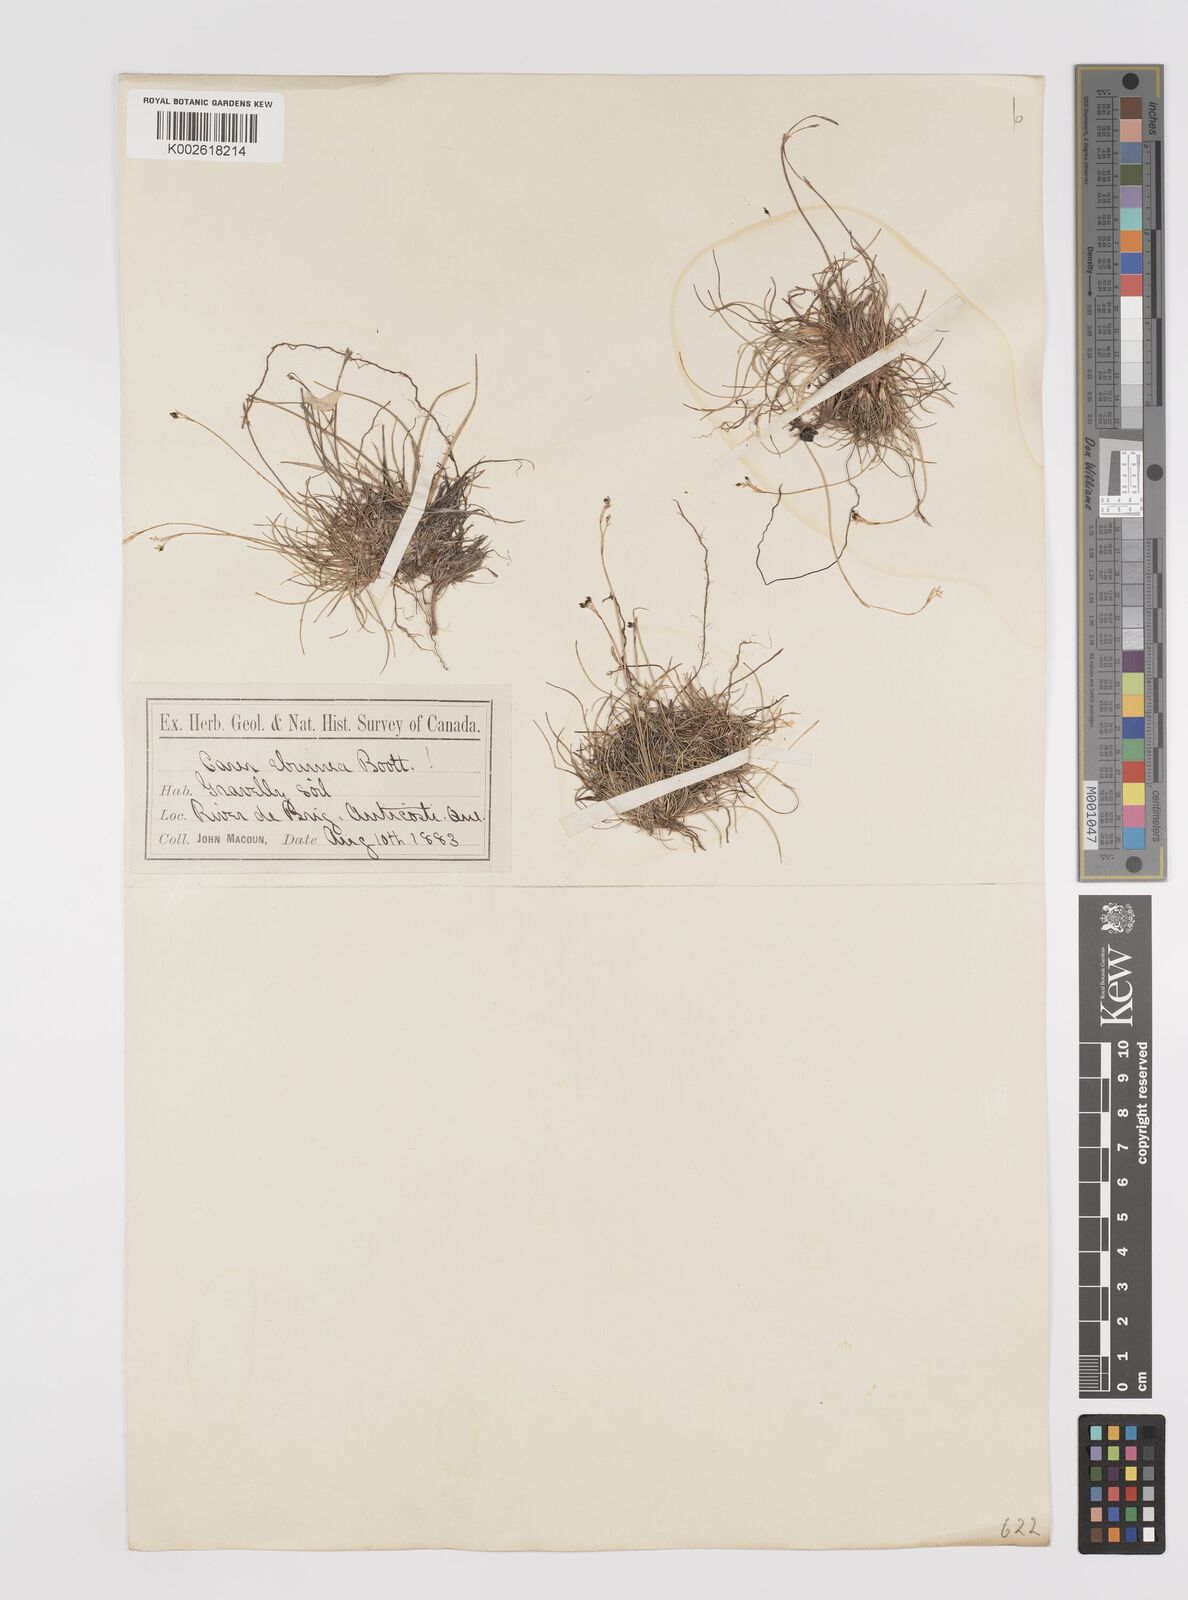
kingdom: Plantae
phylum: Tracheophyta
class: Liliopsida
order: Poales
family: Cyperaceae
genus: Carex
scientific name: Carex eburnea
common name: Bristle-leaved sedge
